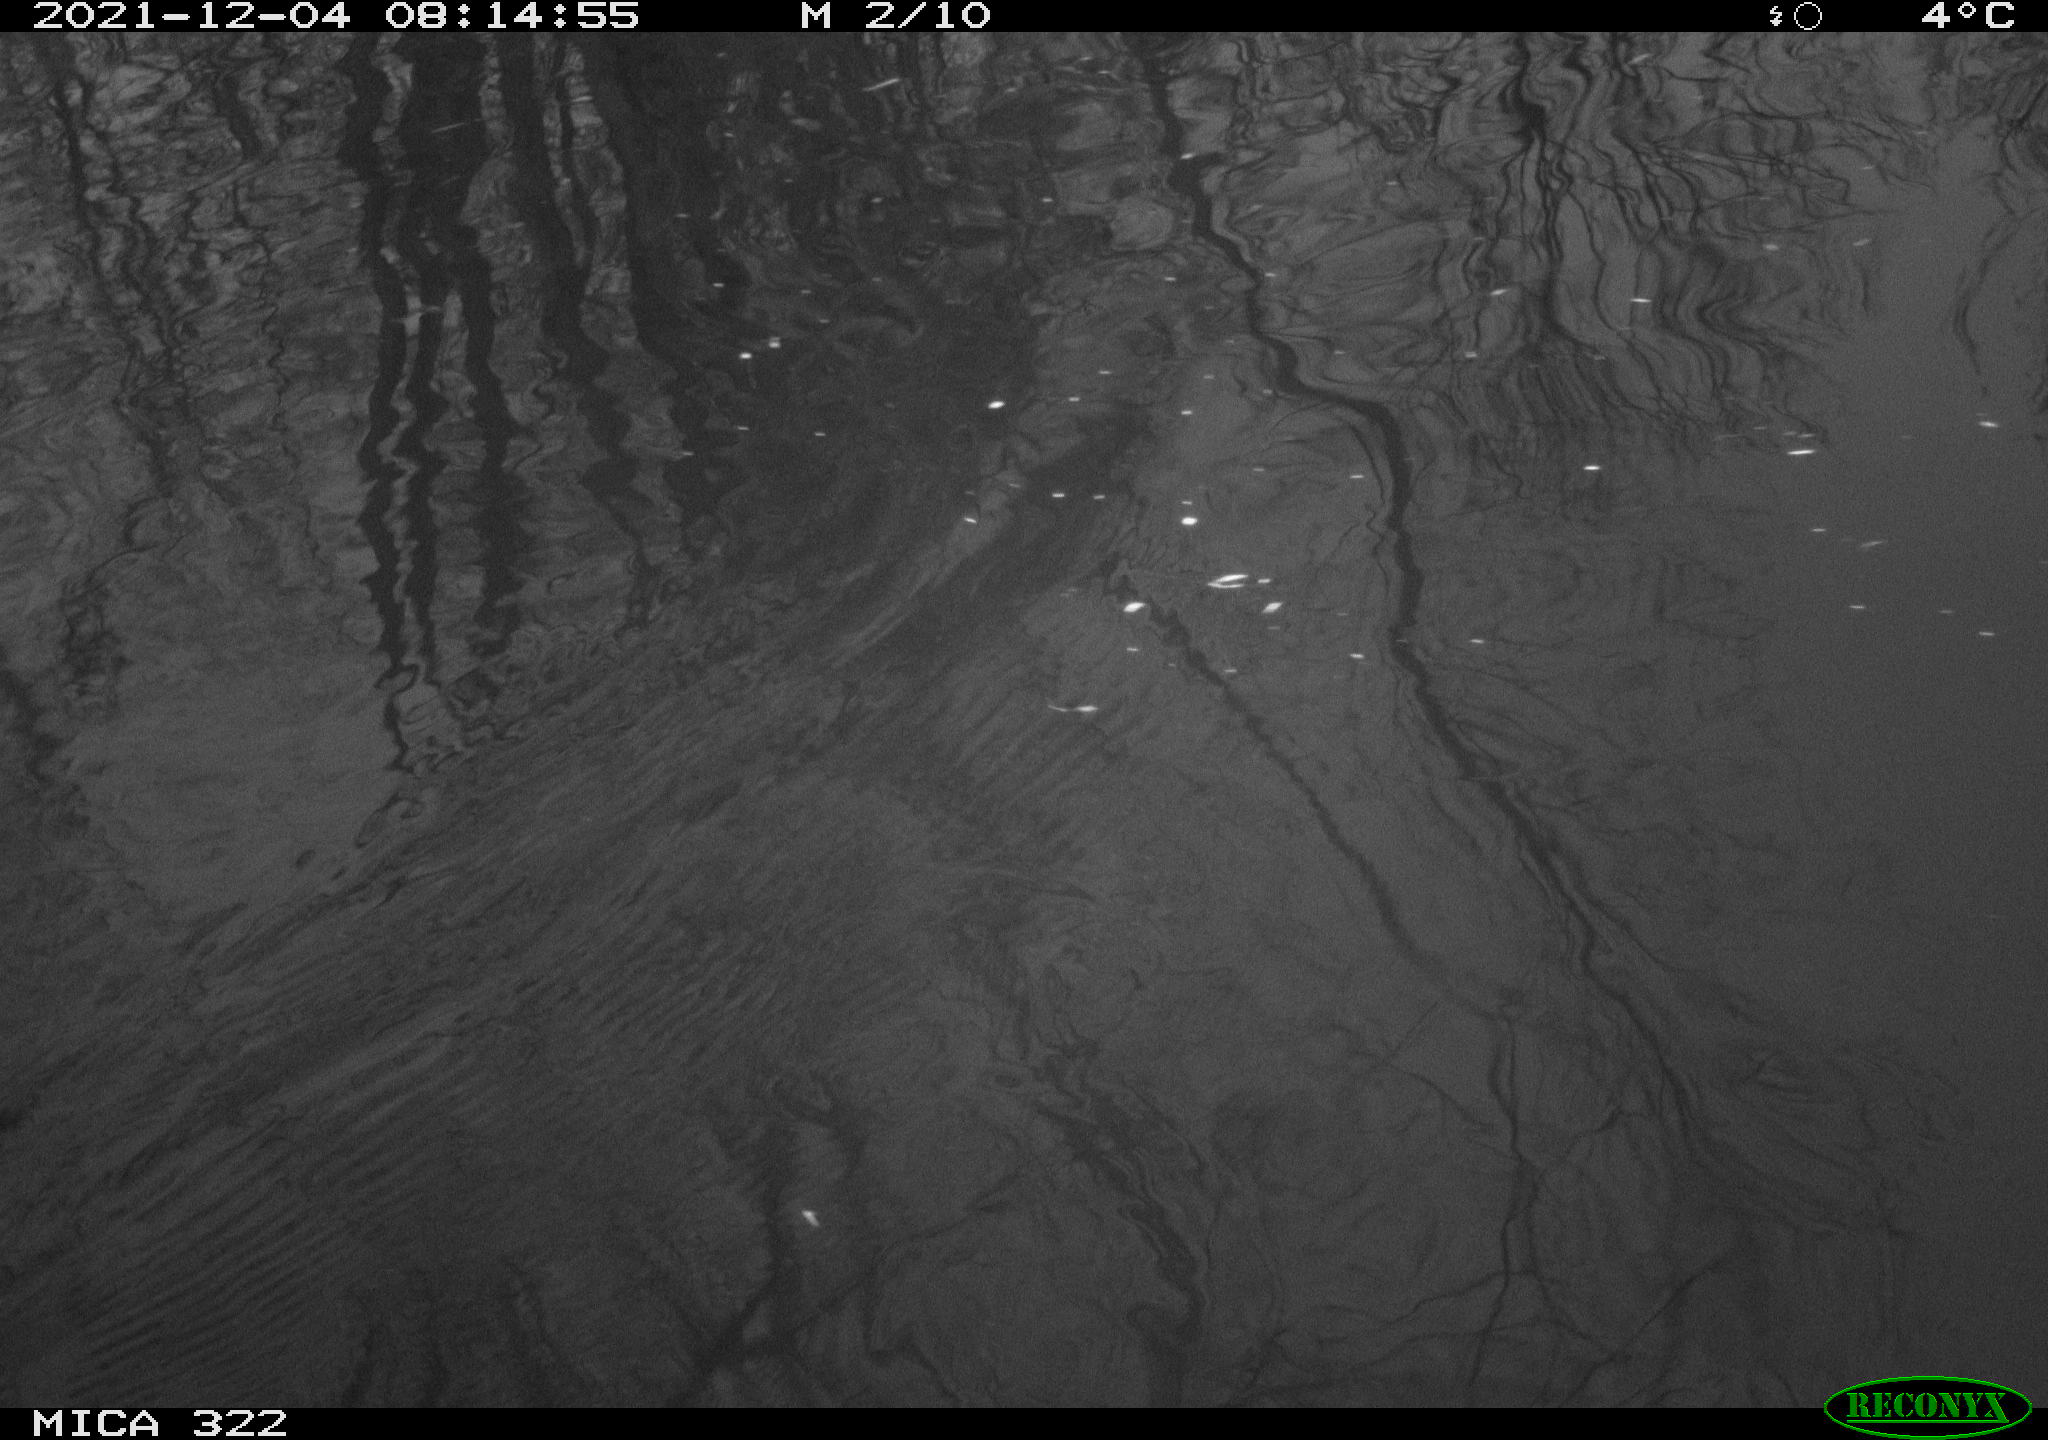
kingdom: Animalia
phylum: Chordata
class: Aves
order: Gruiformes
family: Rallidae
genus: Gallinula
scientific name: Gallinula chloropus
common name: Common moorhen
